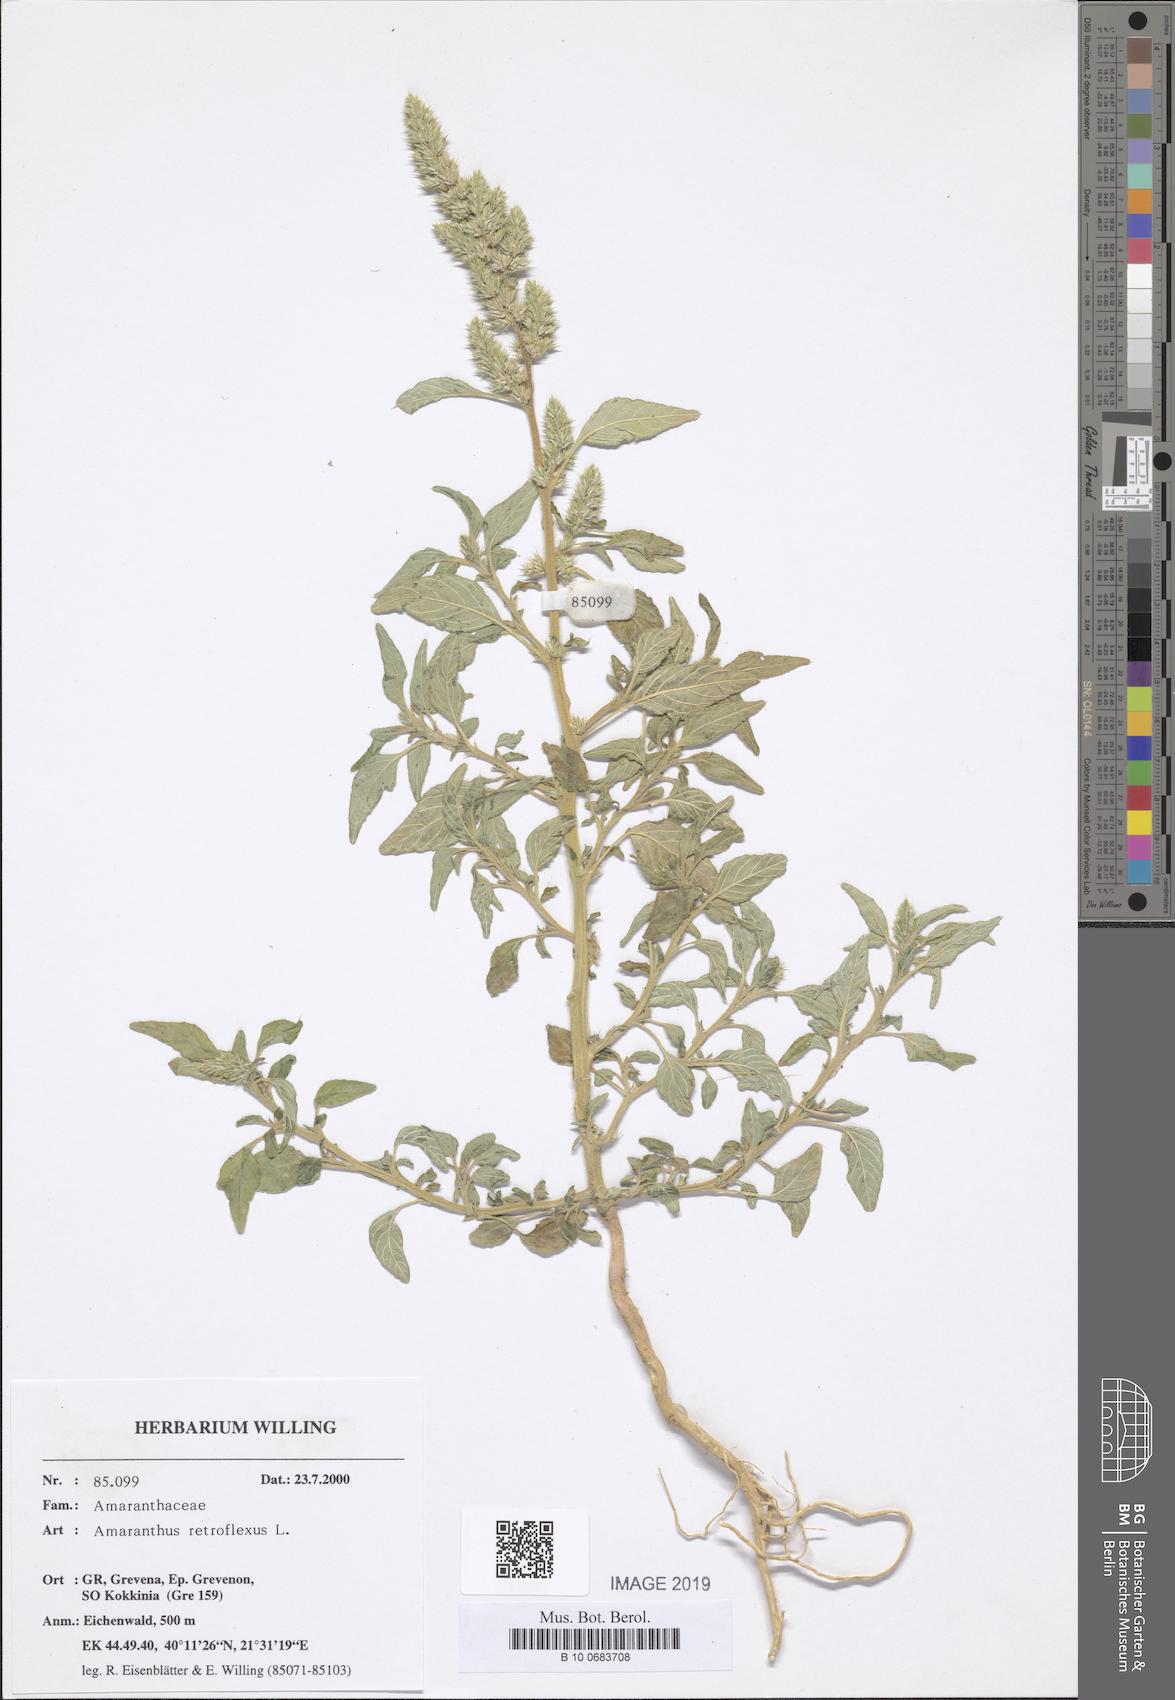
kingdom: Plantae
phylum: Tracheophyta
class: Magnoliopsida
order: Caryophyllales
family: Amaranthaceae
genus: Amaranthus
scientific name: Amaranthus retroflexus
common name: Redroot amaranth
